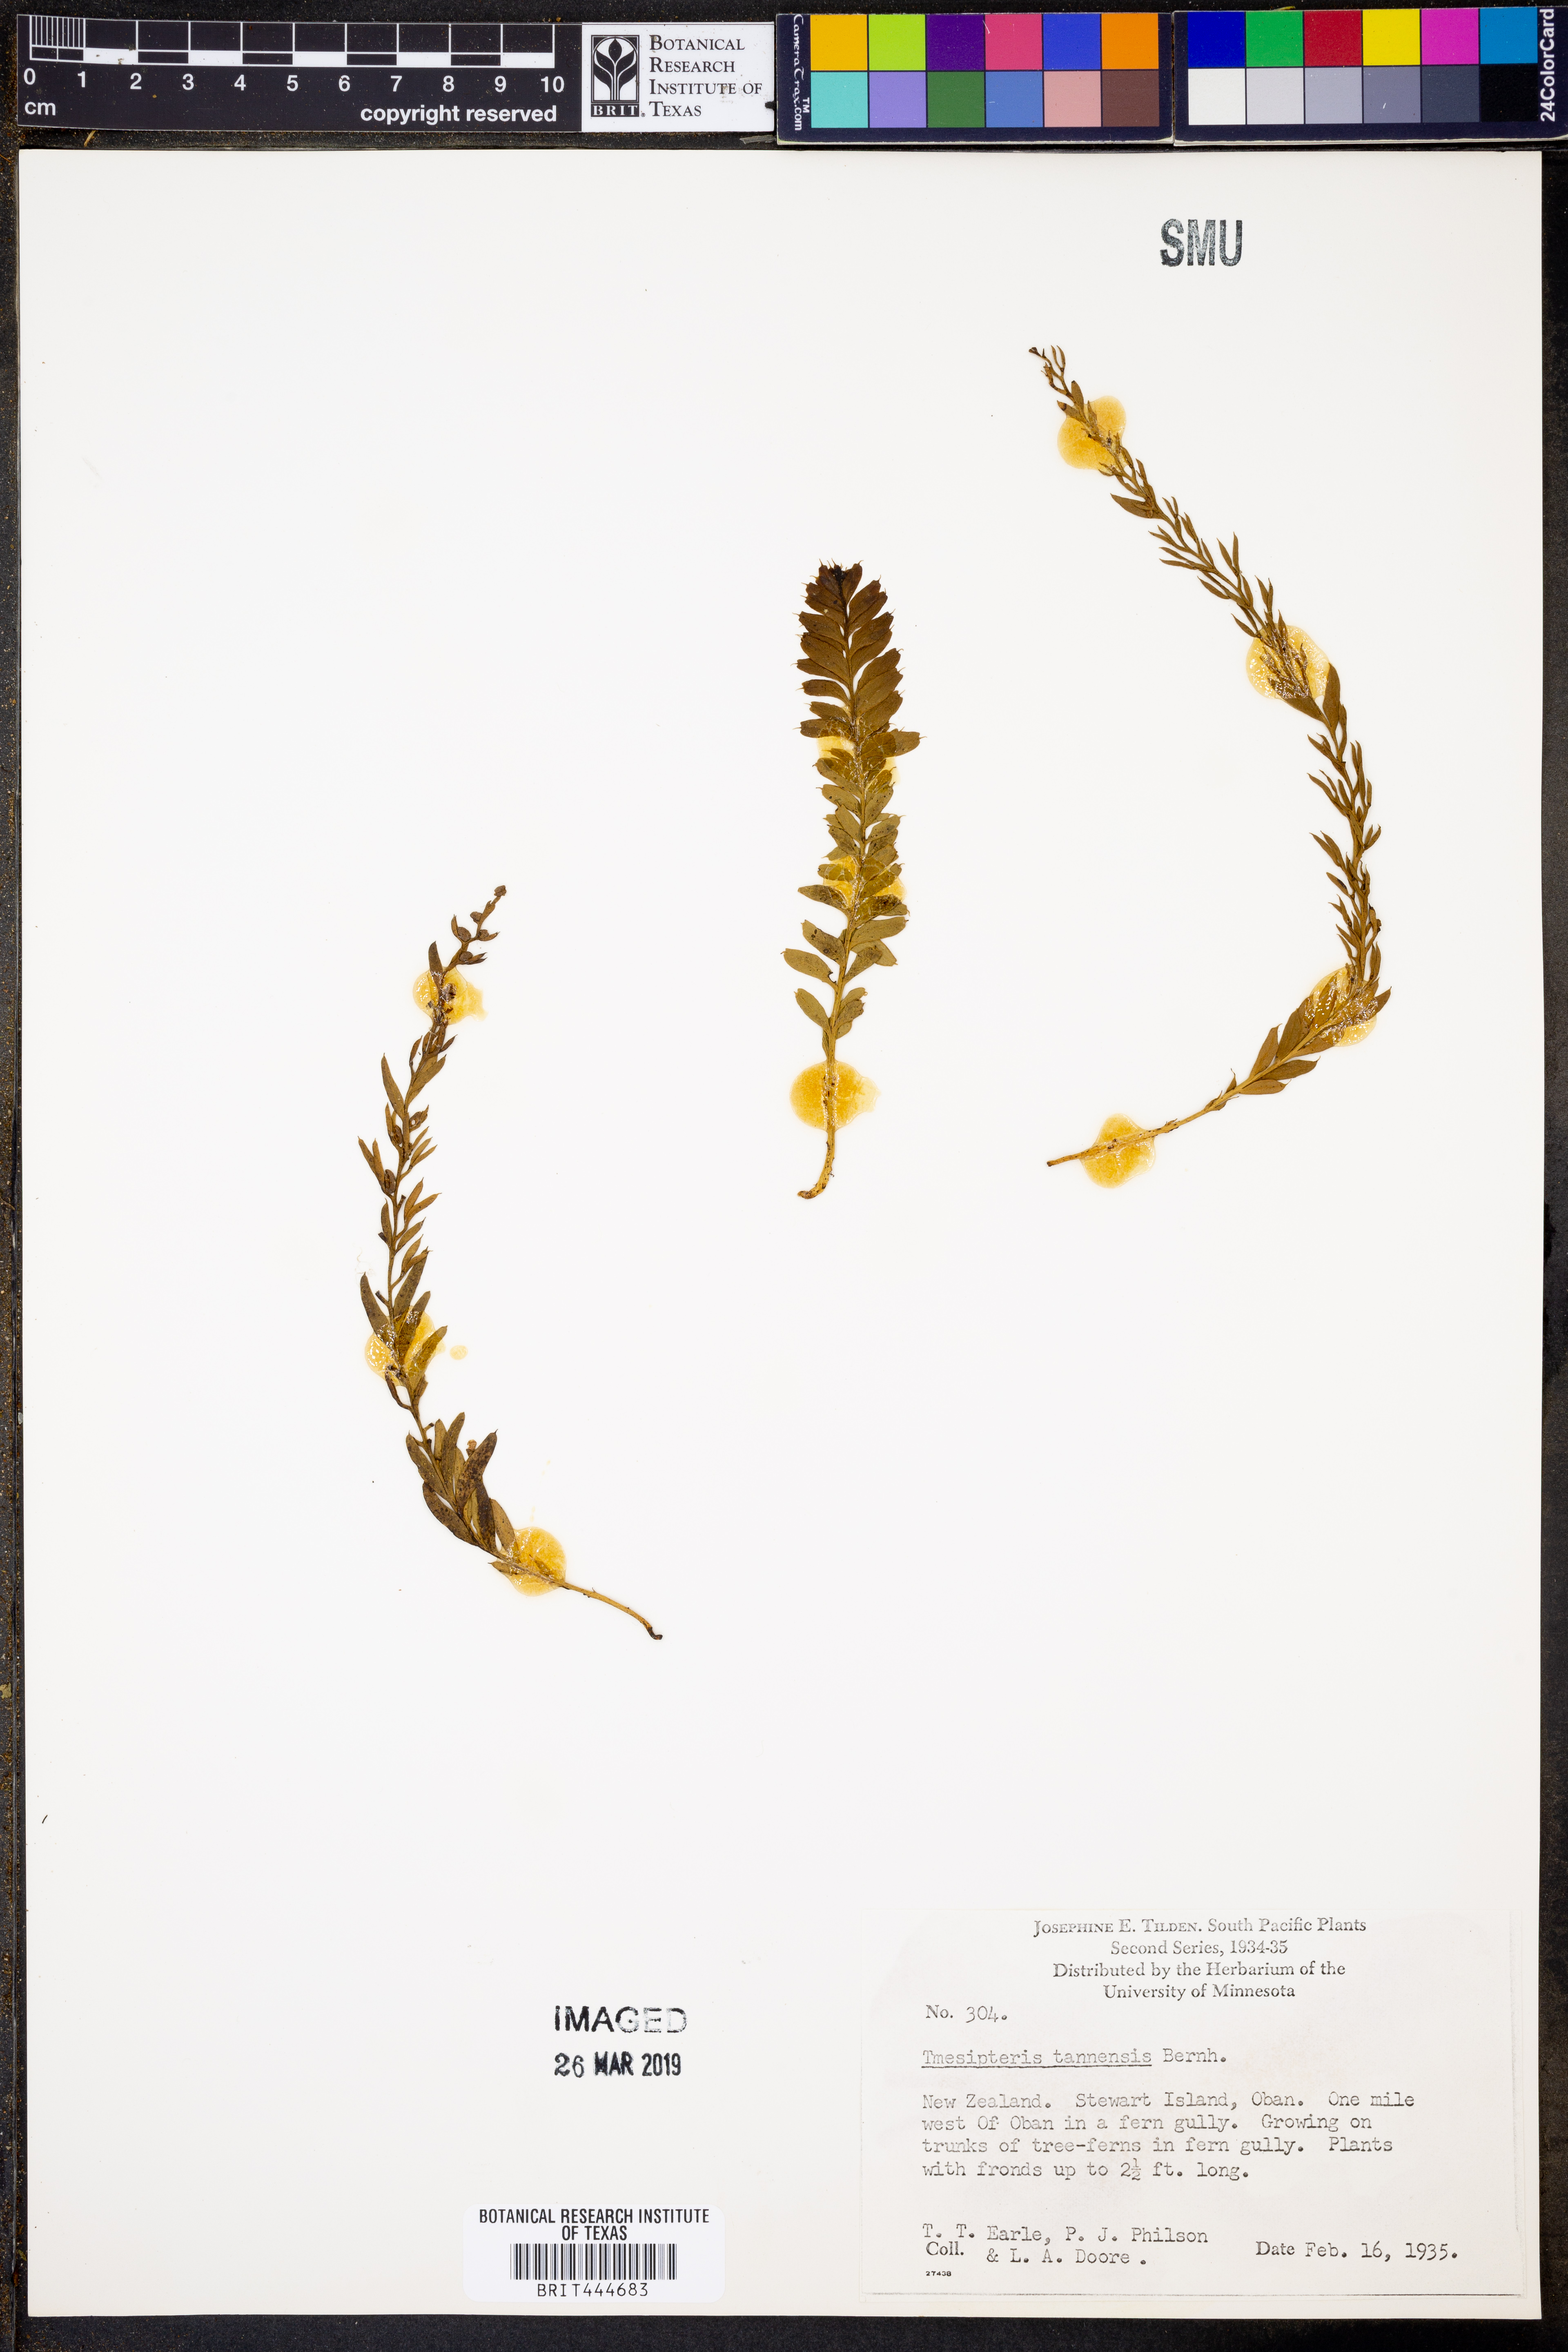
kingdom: Plantae
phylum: Tracheophyta
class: Polypodiopsida
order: Psilotales
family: Psilotaceae
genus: Tmesipteris
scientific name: Tmesipteris tannensis
